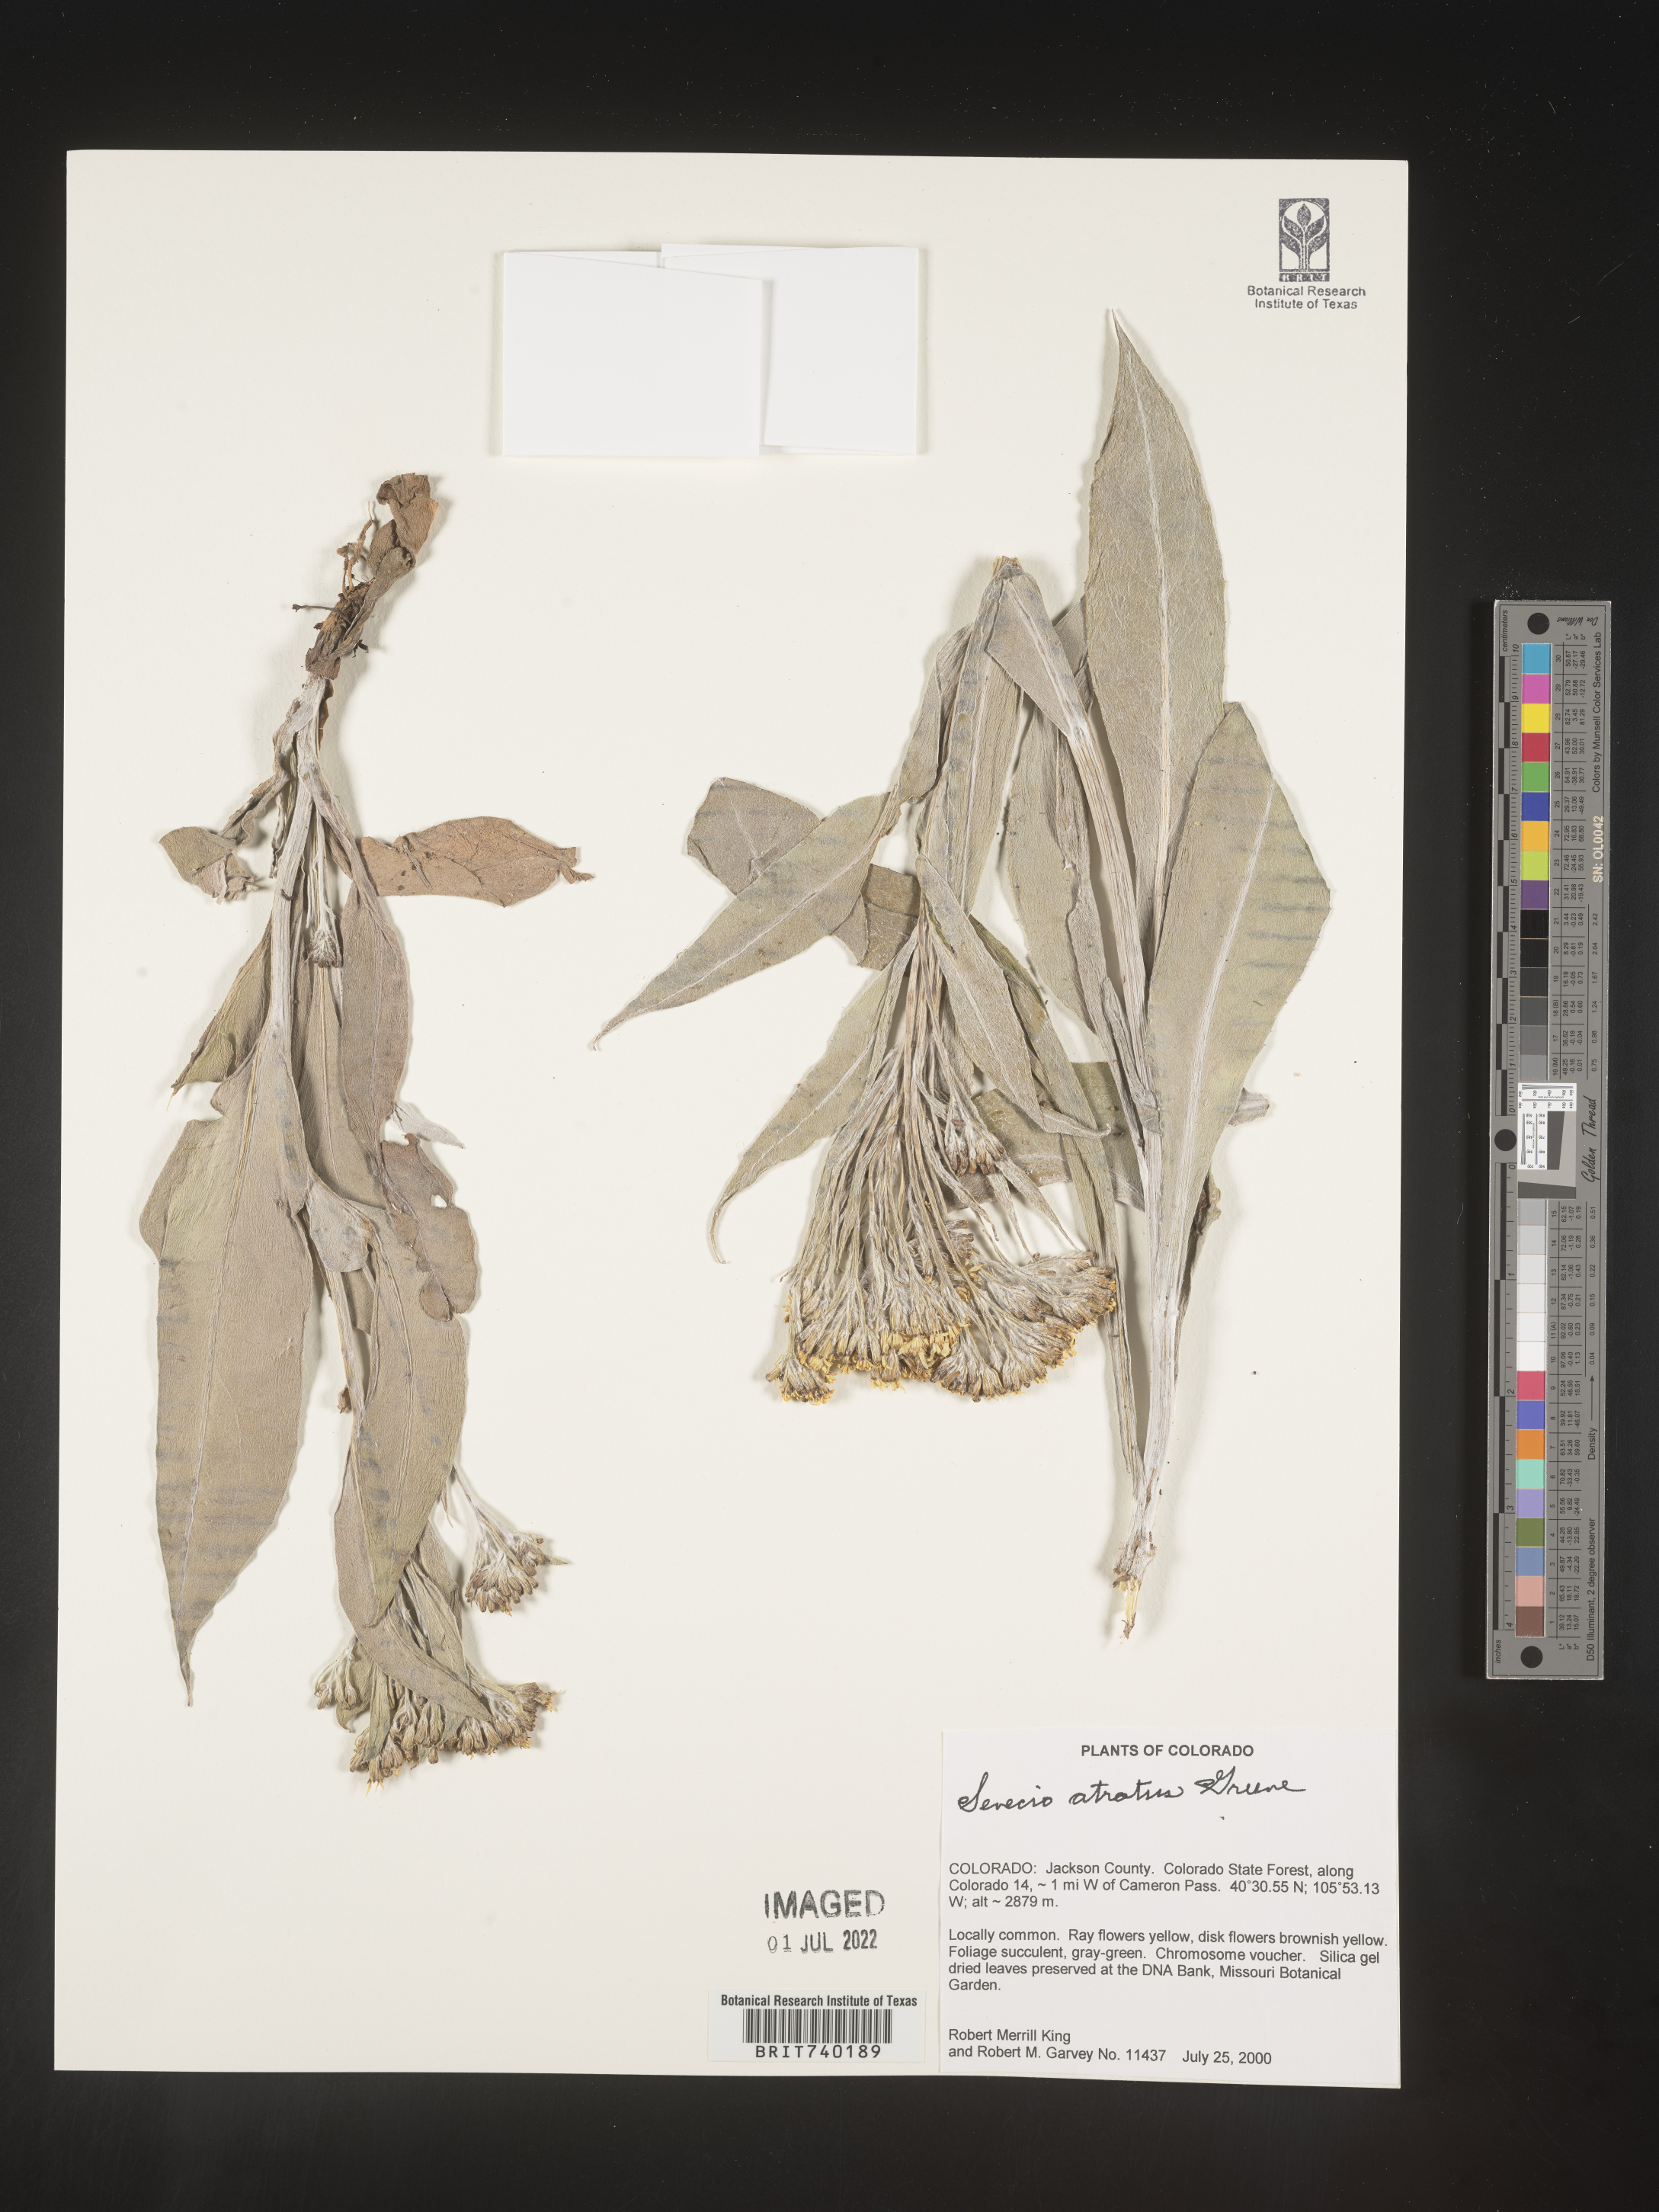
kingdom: Plantae
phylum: Tracheophyta
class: Magnoliopsida
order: Asterales
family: Asteraceae
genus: Senecio
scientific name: Senecio atratus
